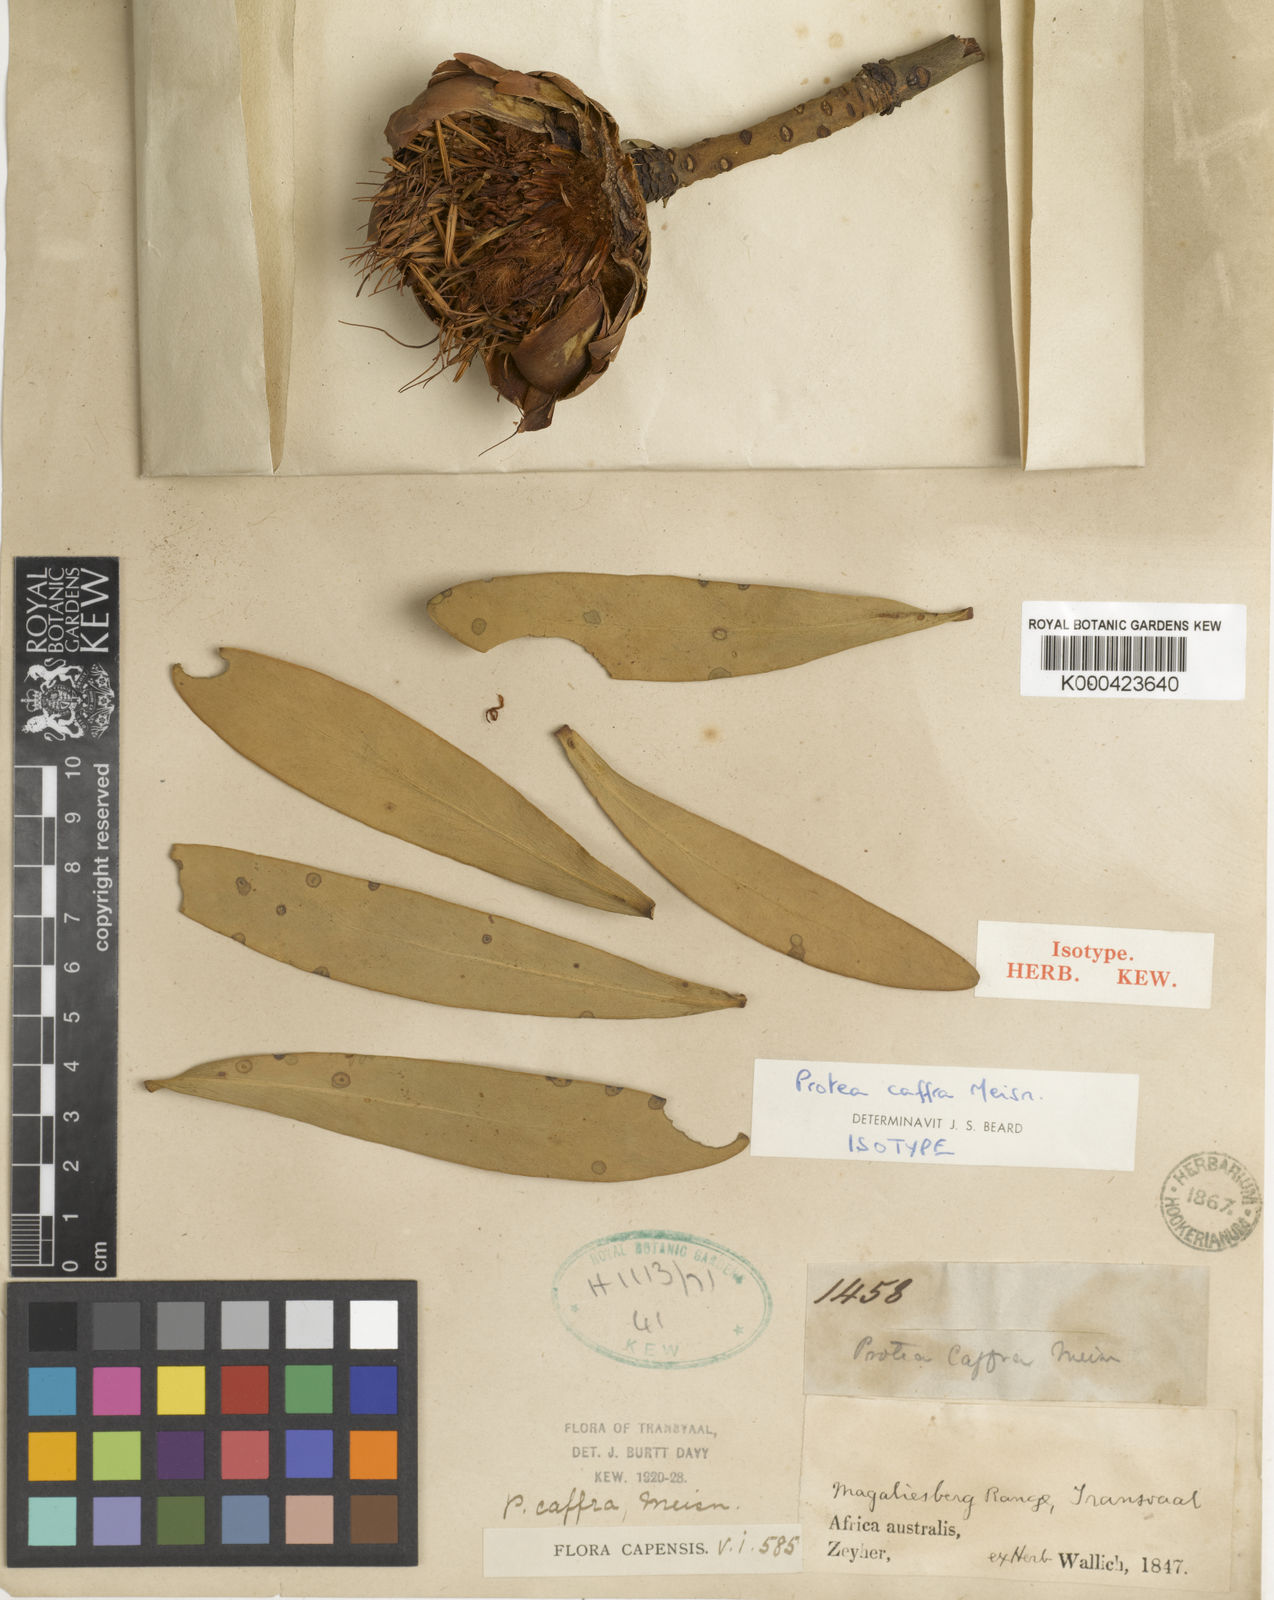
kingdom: Plantae
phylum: Tracheophyta
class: Magnoliopsida
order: Proteales
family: Proteaceae
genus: Protea
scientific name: Protea caffra
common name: Common sugarbush
